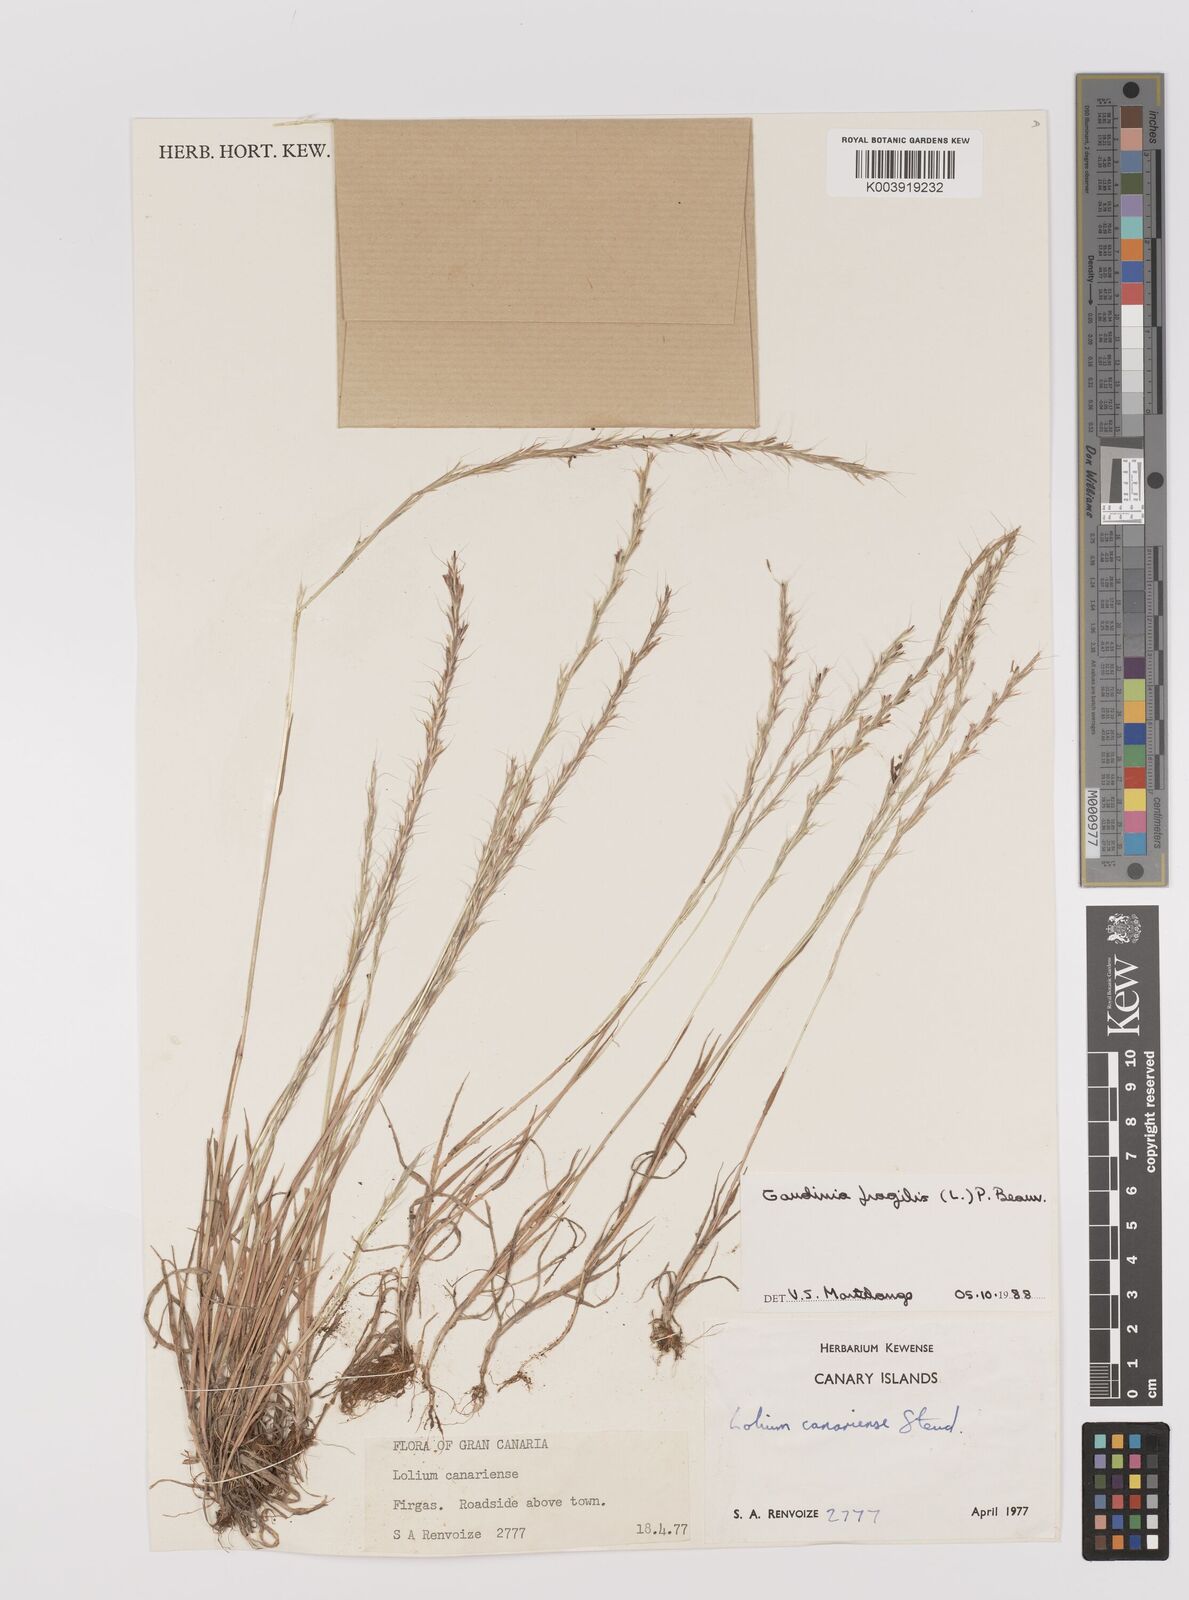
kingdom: Plantae
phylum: Tracheophyta
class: Liliopsida
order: Poales
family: Poaceae
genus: Gaudinia
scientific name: Gaudinia fragilis
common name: French oat-grass
